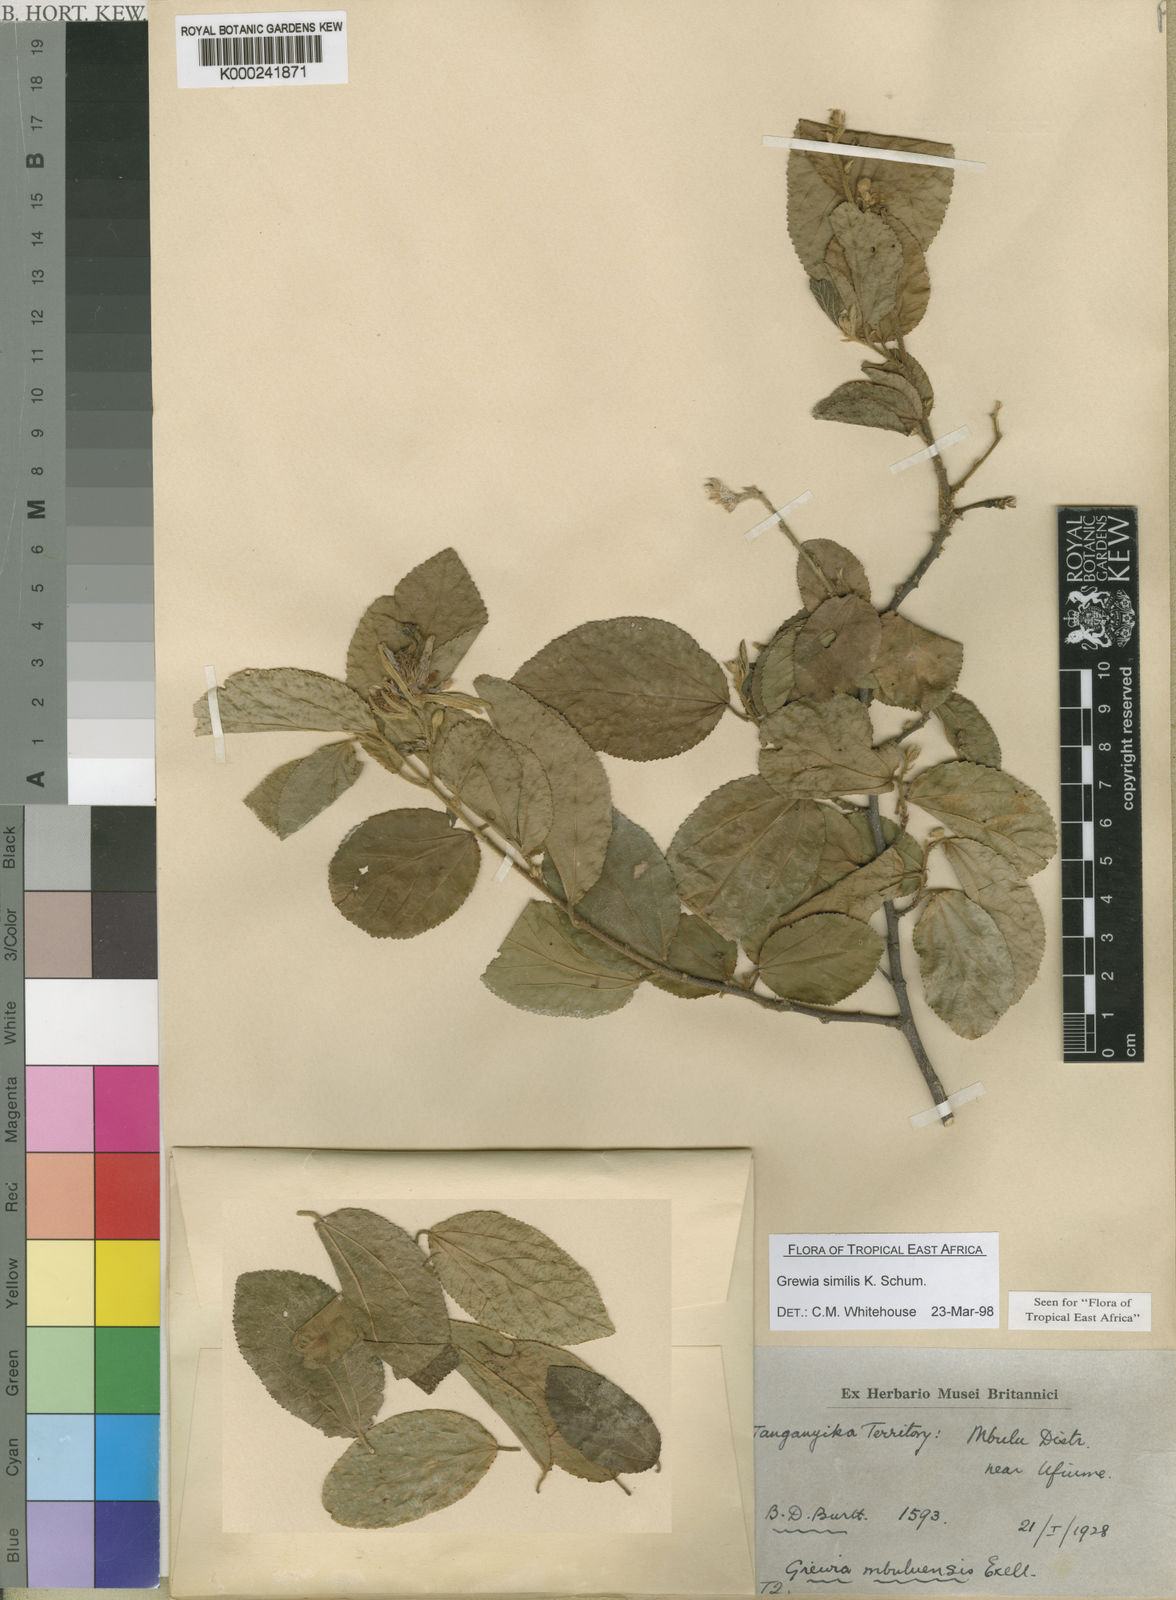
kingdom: Plantae
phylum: Tracheophyta
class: Magnoliopsida
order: Malvales
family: Malvaceae
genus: Grewia
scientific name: Grewia similis
